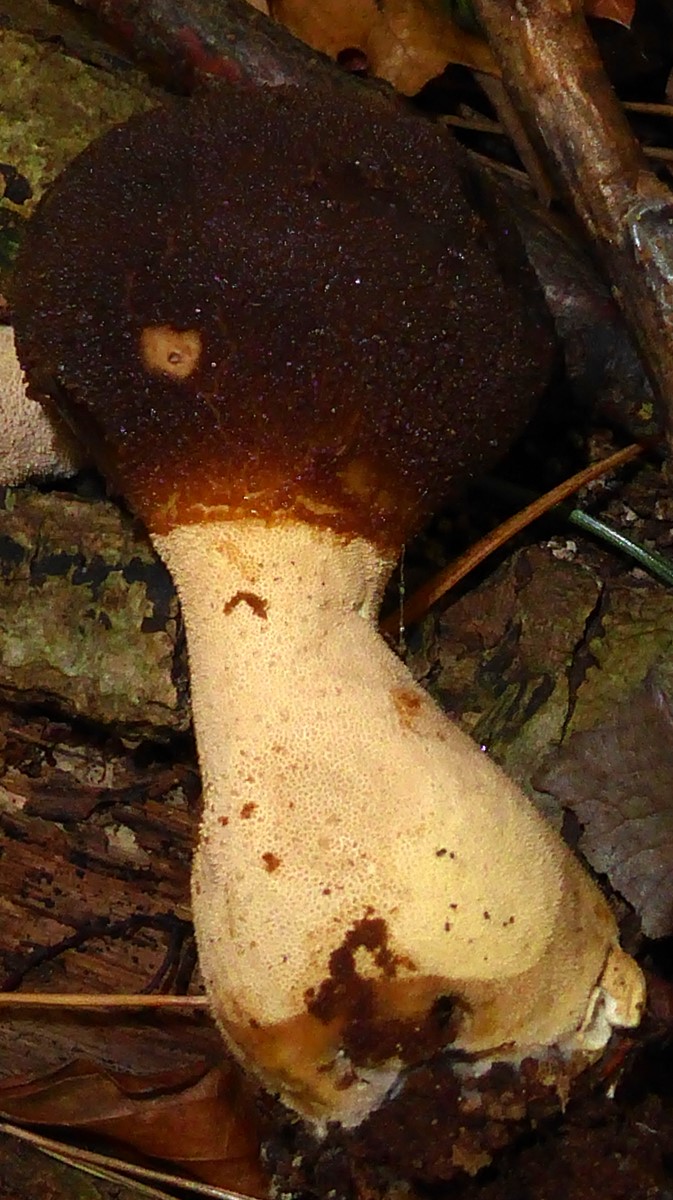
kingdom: Fungi
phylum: Basidiomycota
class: Agaricomycetes
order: Agaricales
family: Lycoperdaceae
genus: Lycoperdon
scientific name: Lycoperdon excipuliforme
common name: højstokket støvbold
